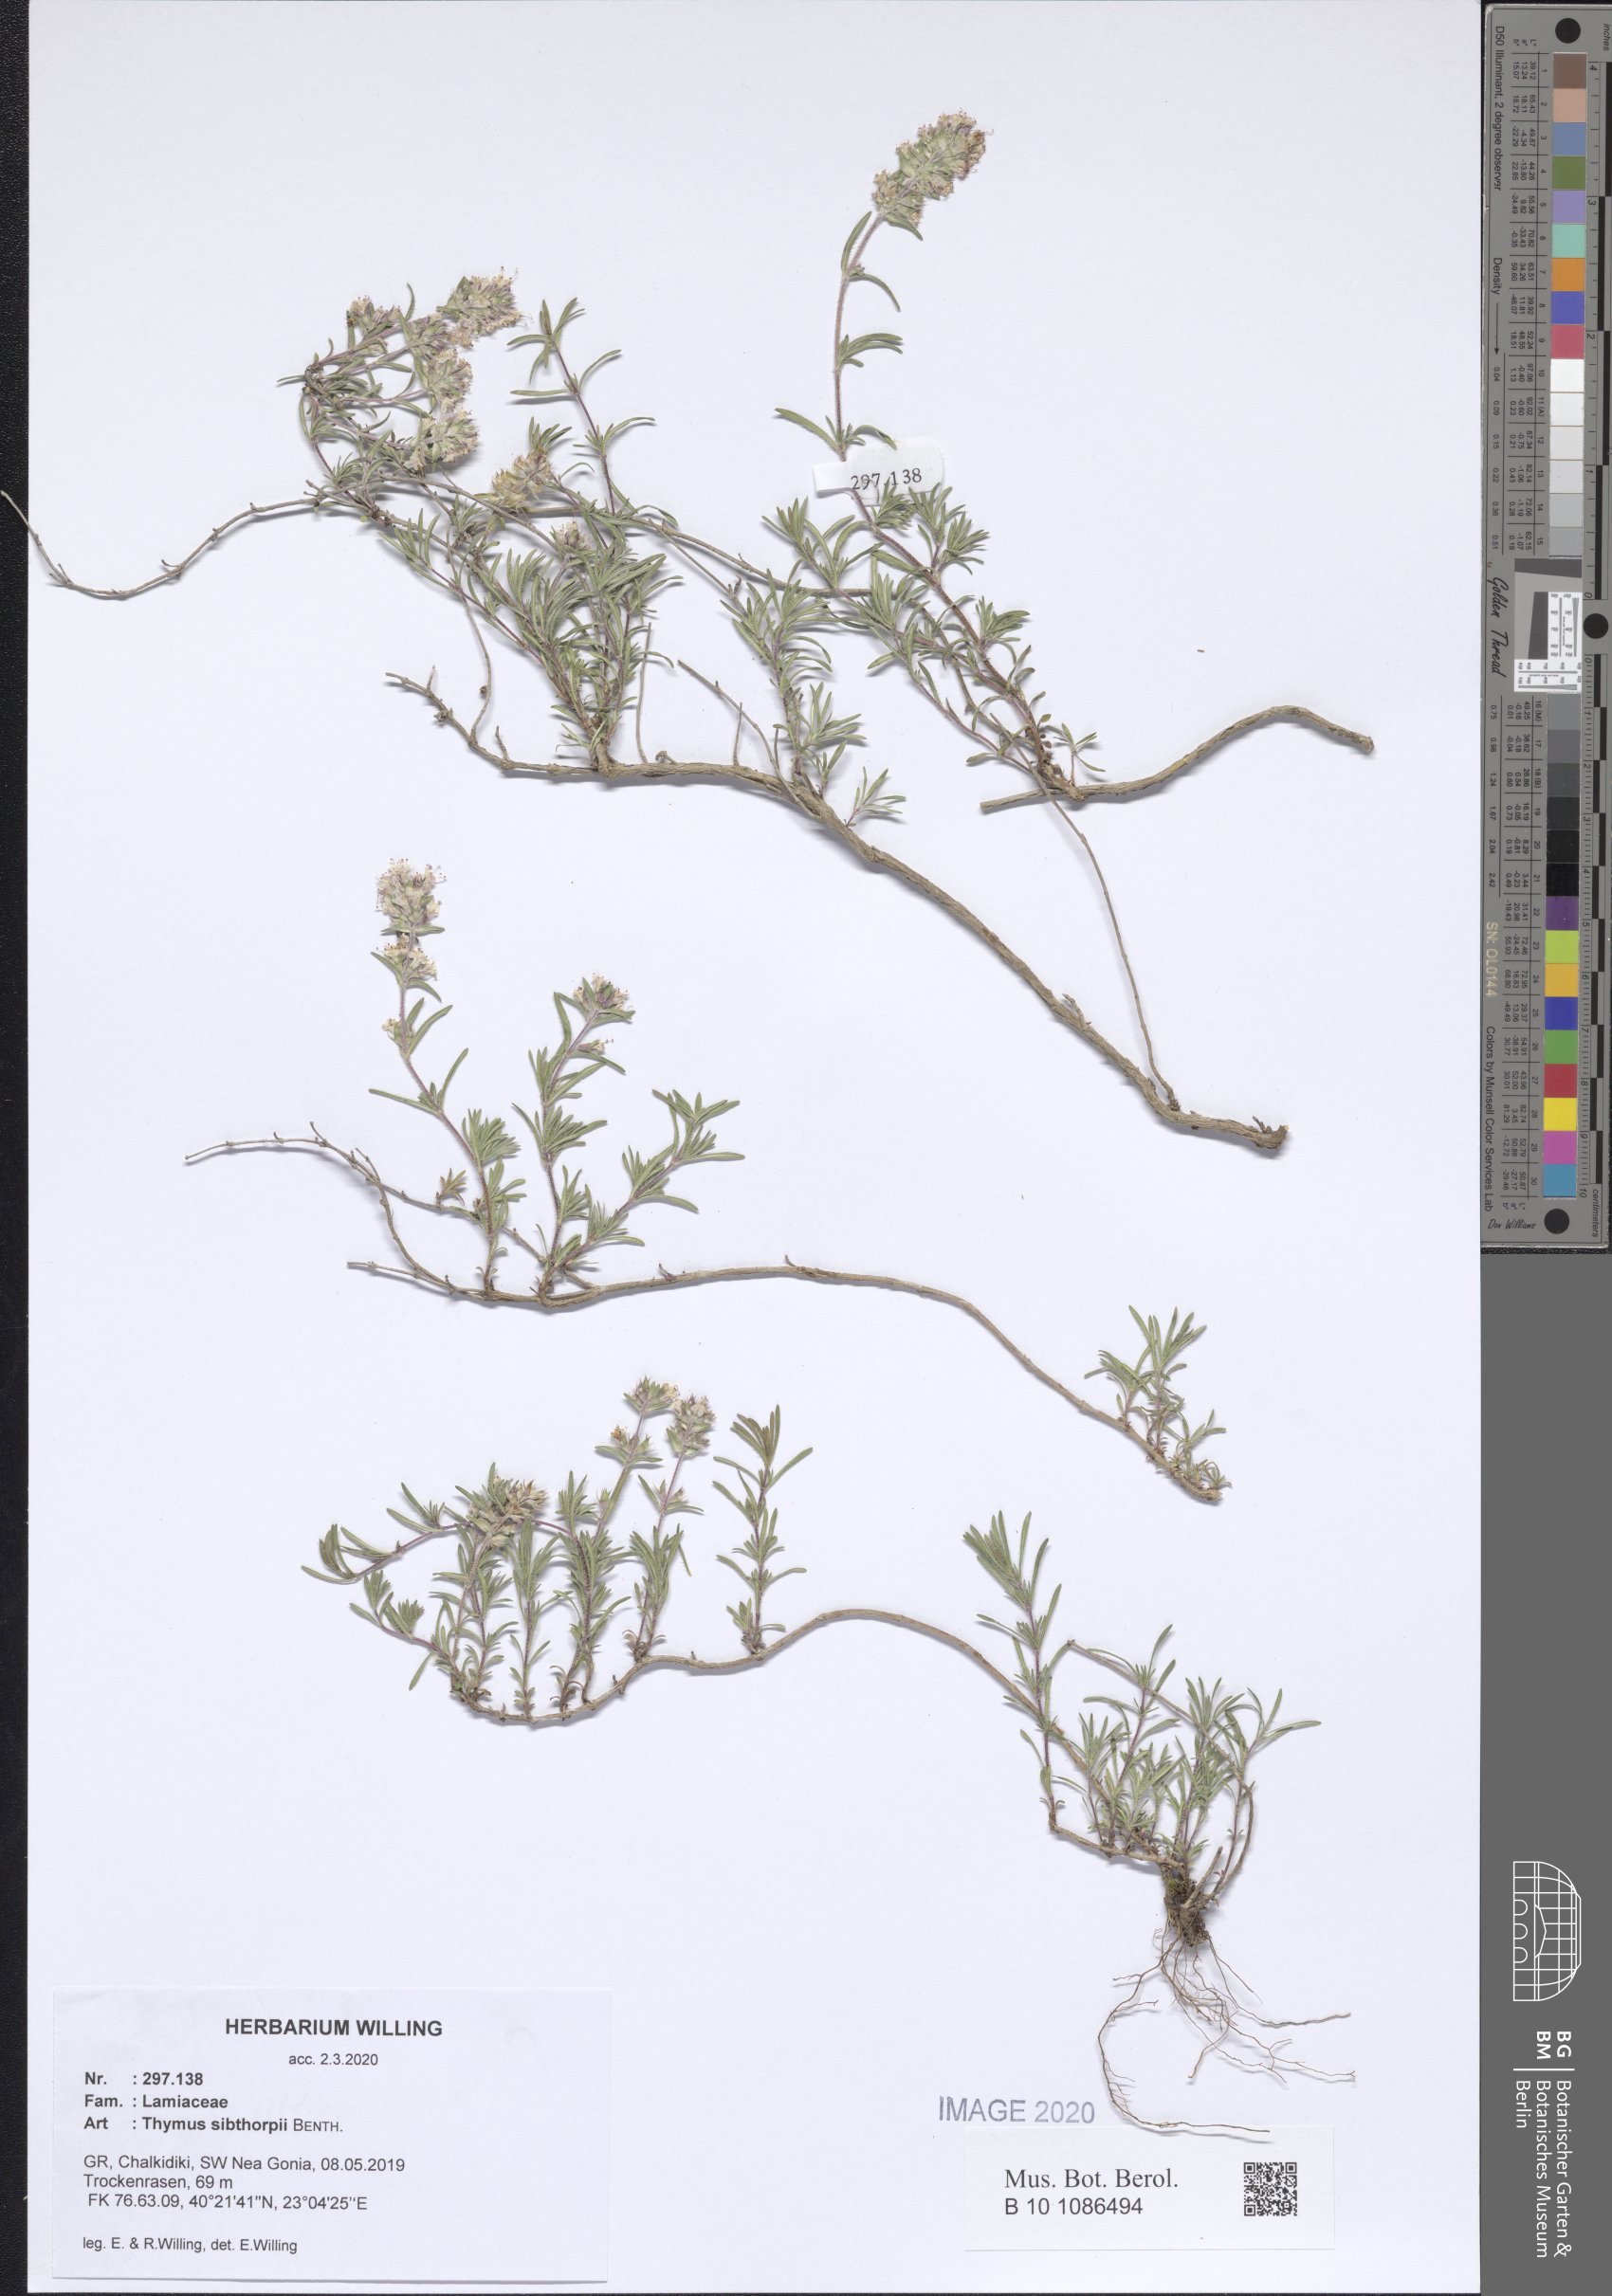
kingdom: Plantae
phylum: Tracheophyta
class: Magnoliopsida
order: Lamiales
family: Lamiaceae
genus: Thymus
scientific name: Thymus sibthorpii
